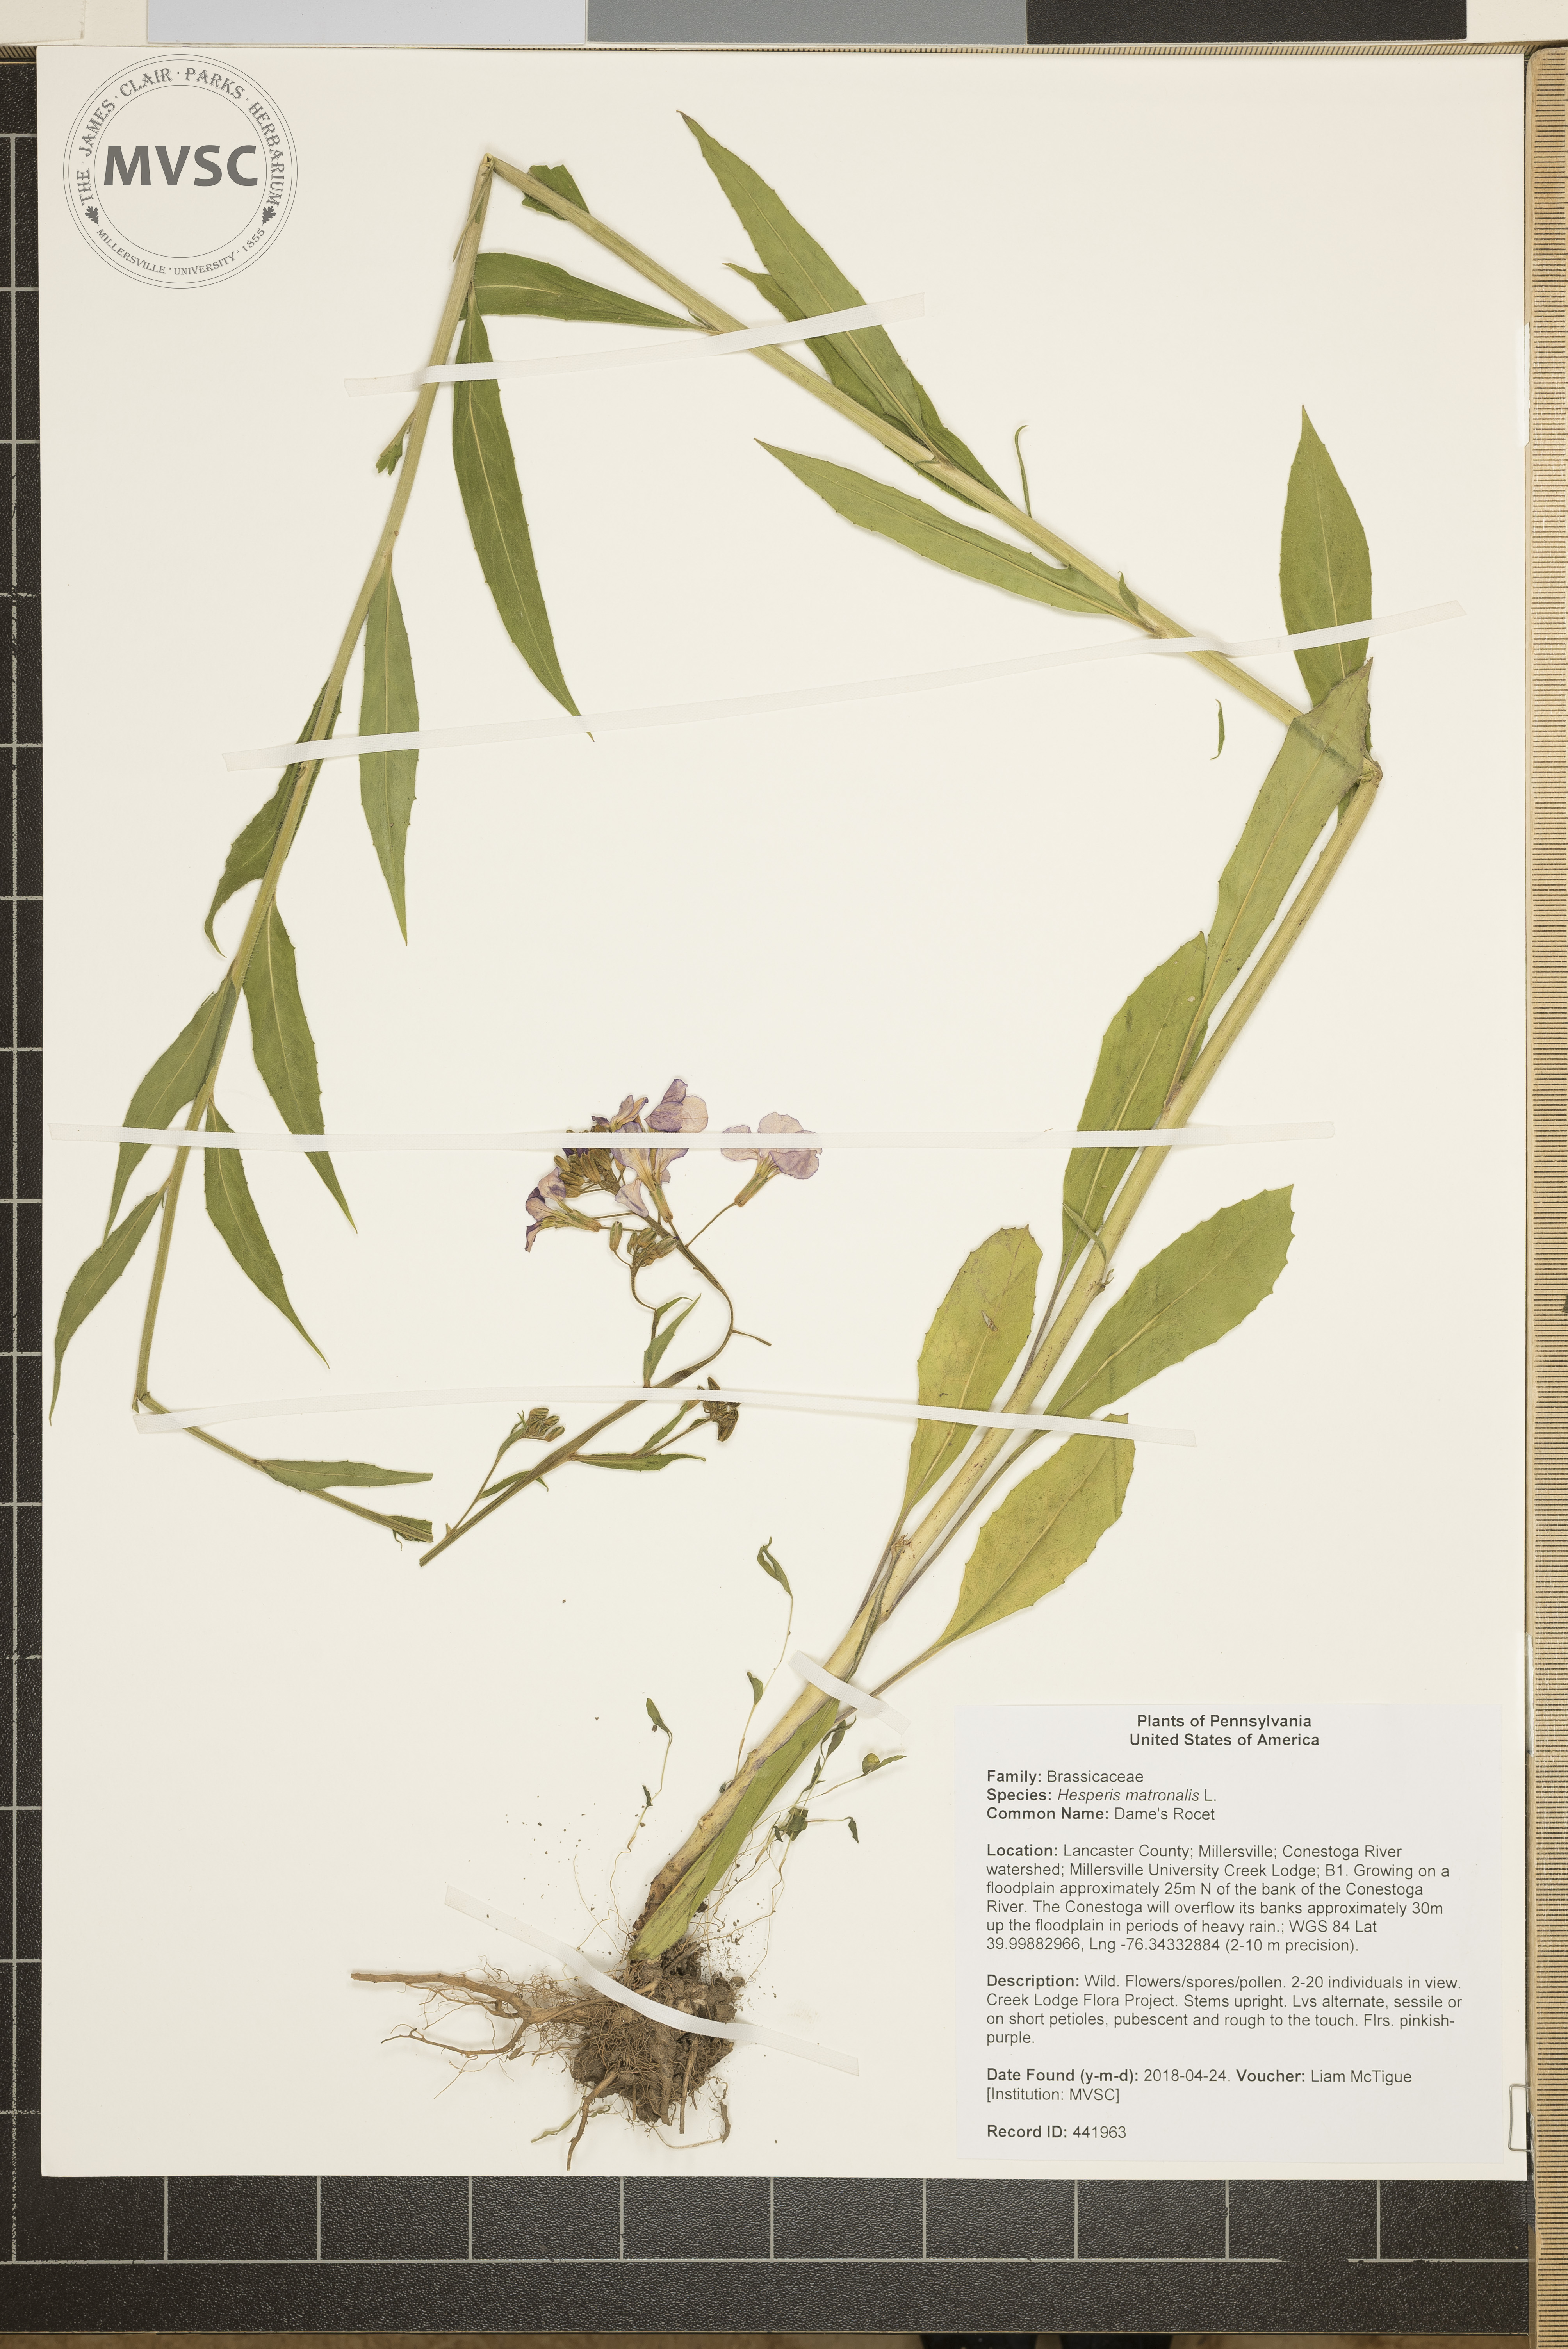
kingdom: Plantae
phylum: Tracheophyta
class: Magnoliopsida
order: Brassicales
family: Brassicaceae
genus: Hesperis
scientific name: Hesperis matronalis
